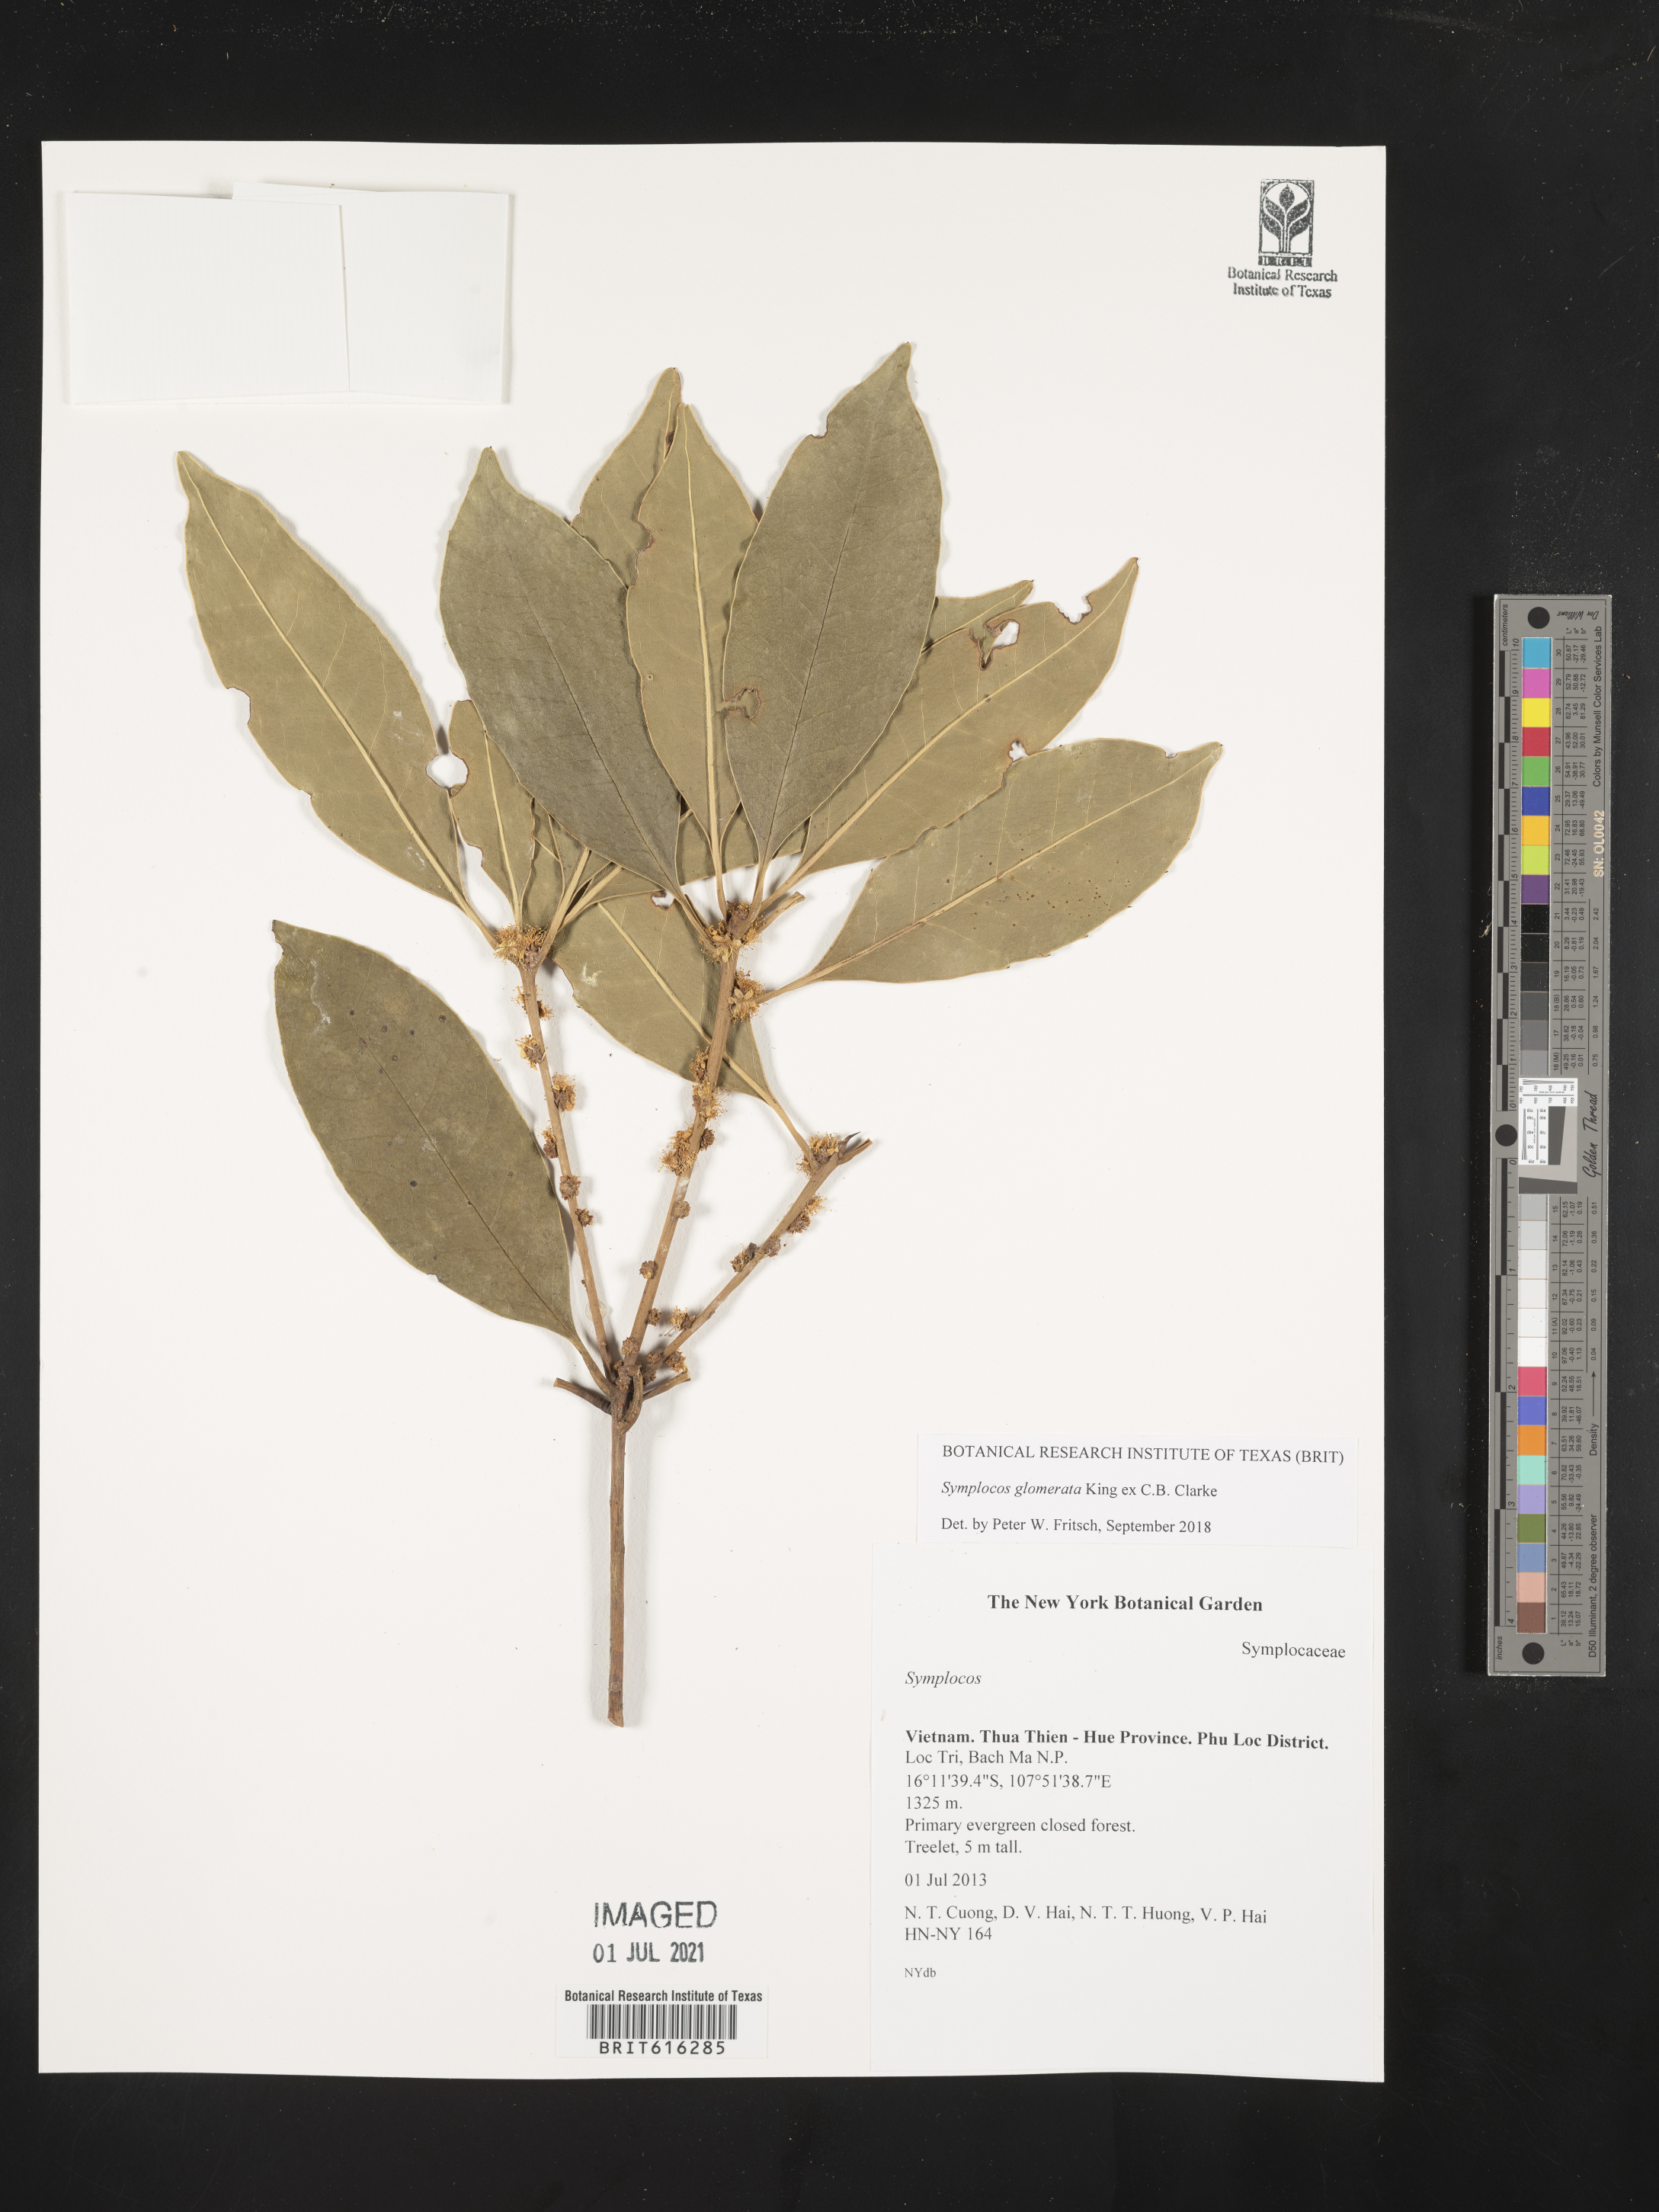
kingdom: Plantae
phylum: Tracheophyta
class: Magnoliopsida
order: Ericales
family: Symplocaceae
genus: Symplocos
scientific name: Symplocos glomerata
